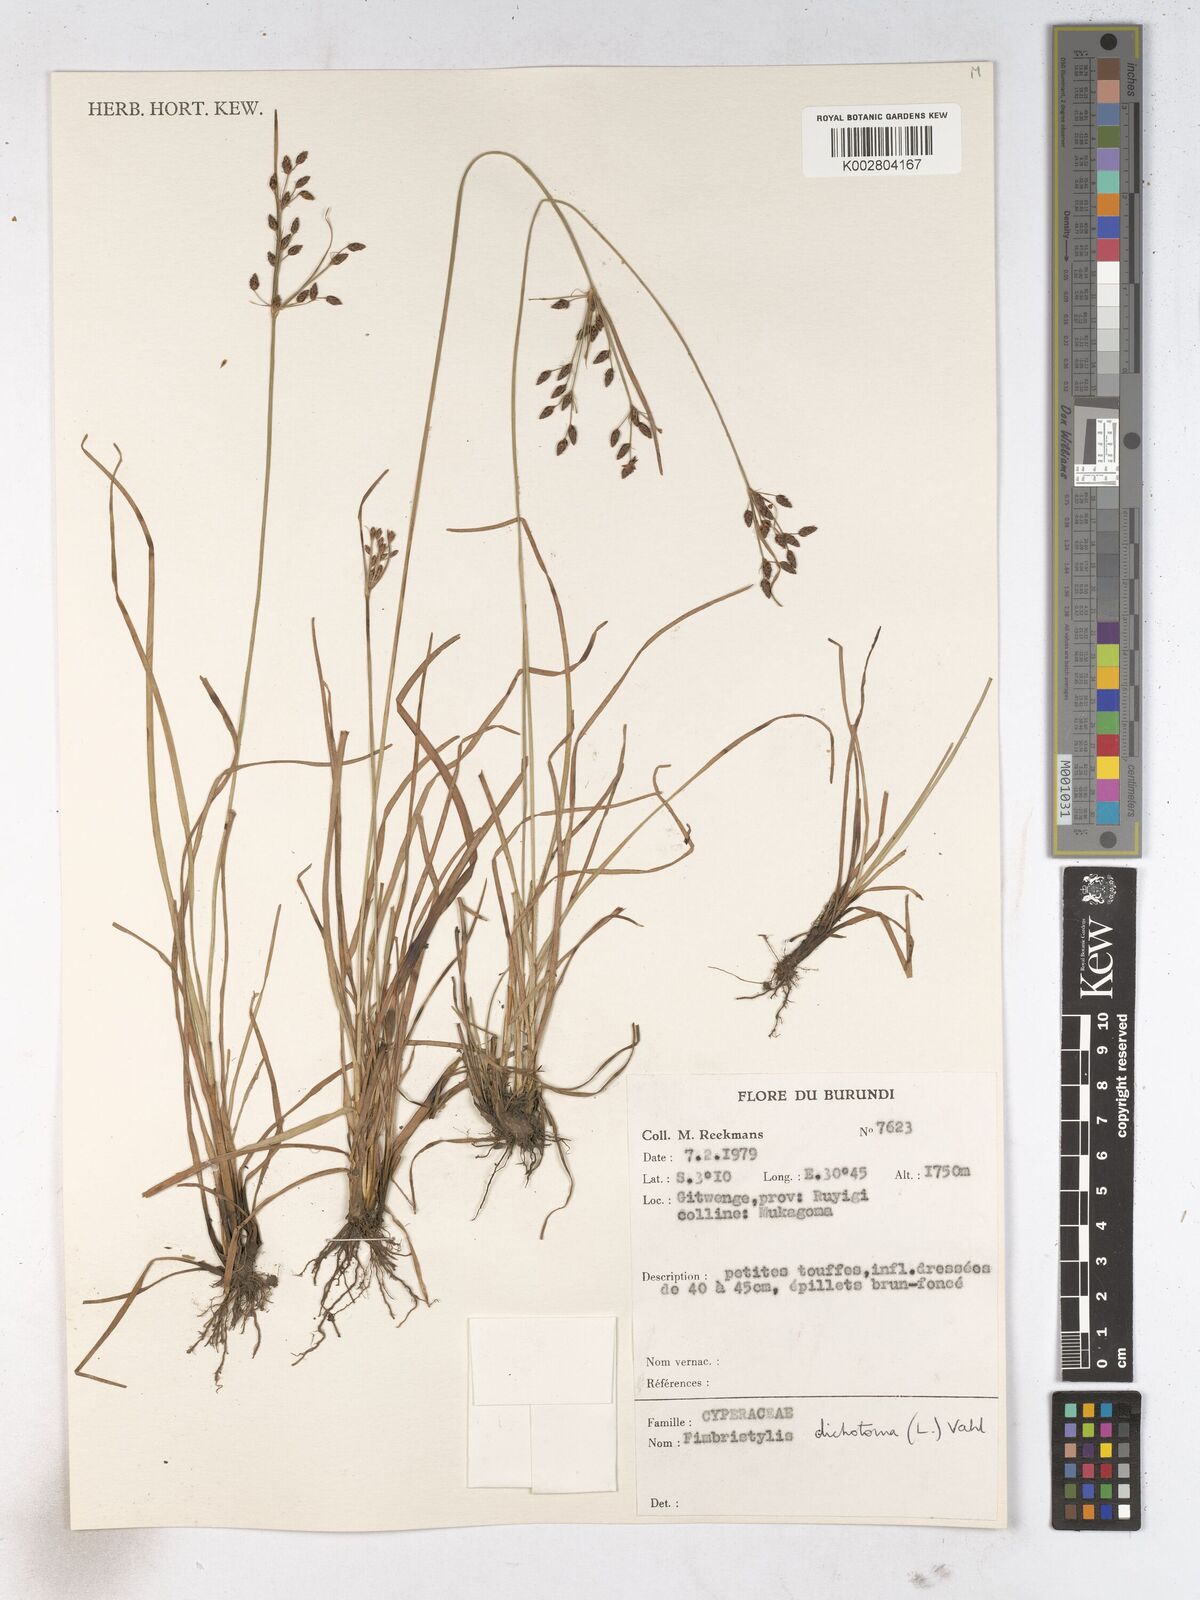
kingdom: Plantae
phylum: Tracheophyta
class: Liliopsida
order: Poales
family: Cyperaceae
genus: Fimbristylis
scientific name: Fimbristylis dichotoma
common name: Forked fimbry
